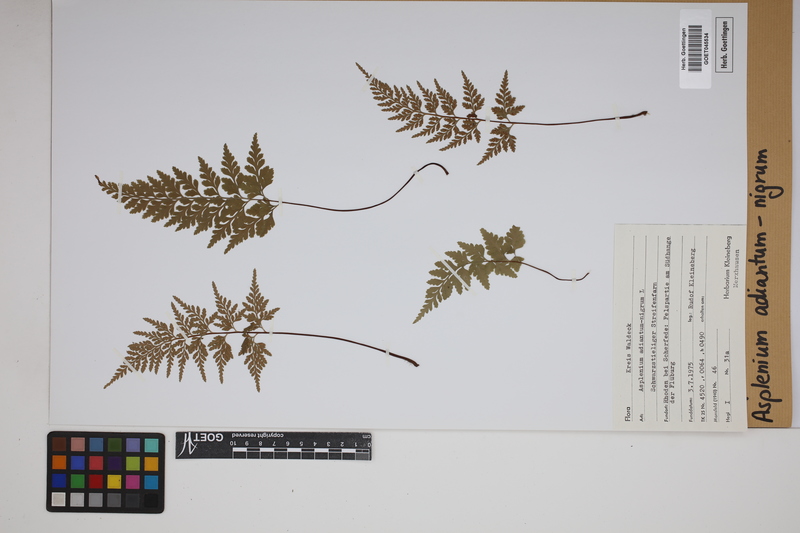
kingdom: Plantae
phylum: Tracheophyta
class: Polypodiopsida
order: Polypodiales
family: Aspleniaceae
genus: Asplenium
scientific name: Asplenium adiantum-nigrum
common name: Black spleenwort
